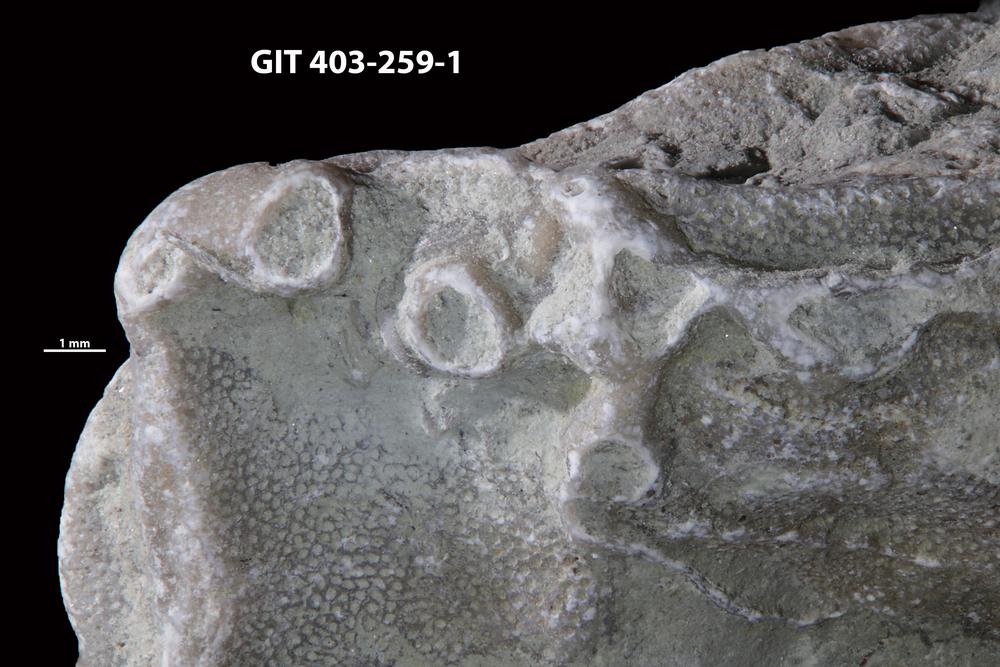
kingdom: Animalia
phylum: Cnidaria
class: Anthozoa
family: Auloporidae
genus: Aulopora
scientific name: Aulopora
